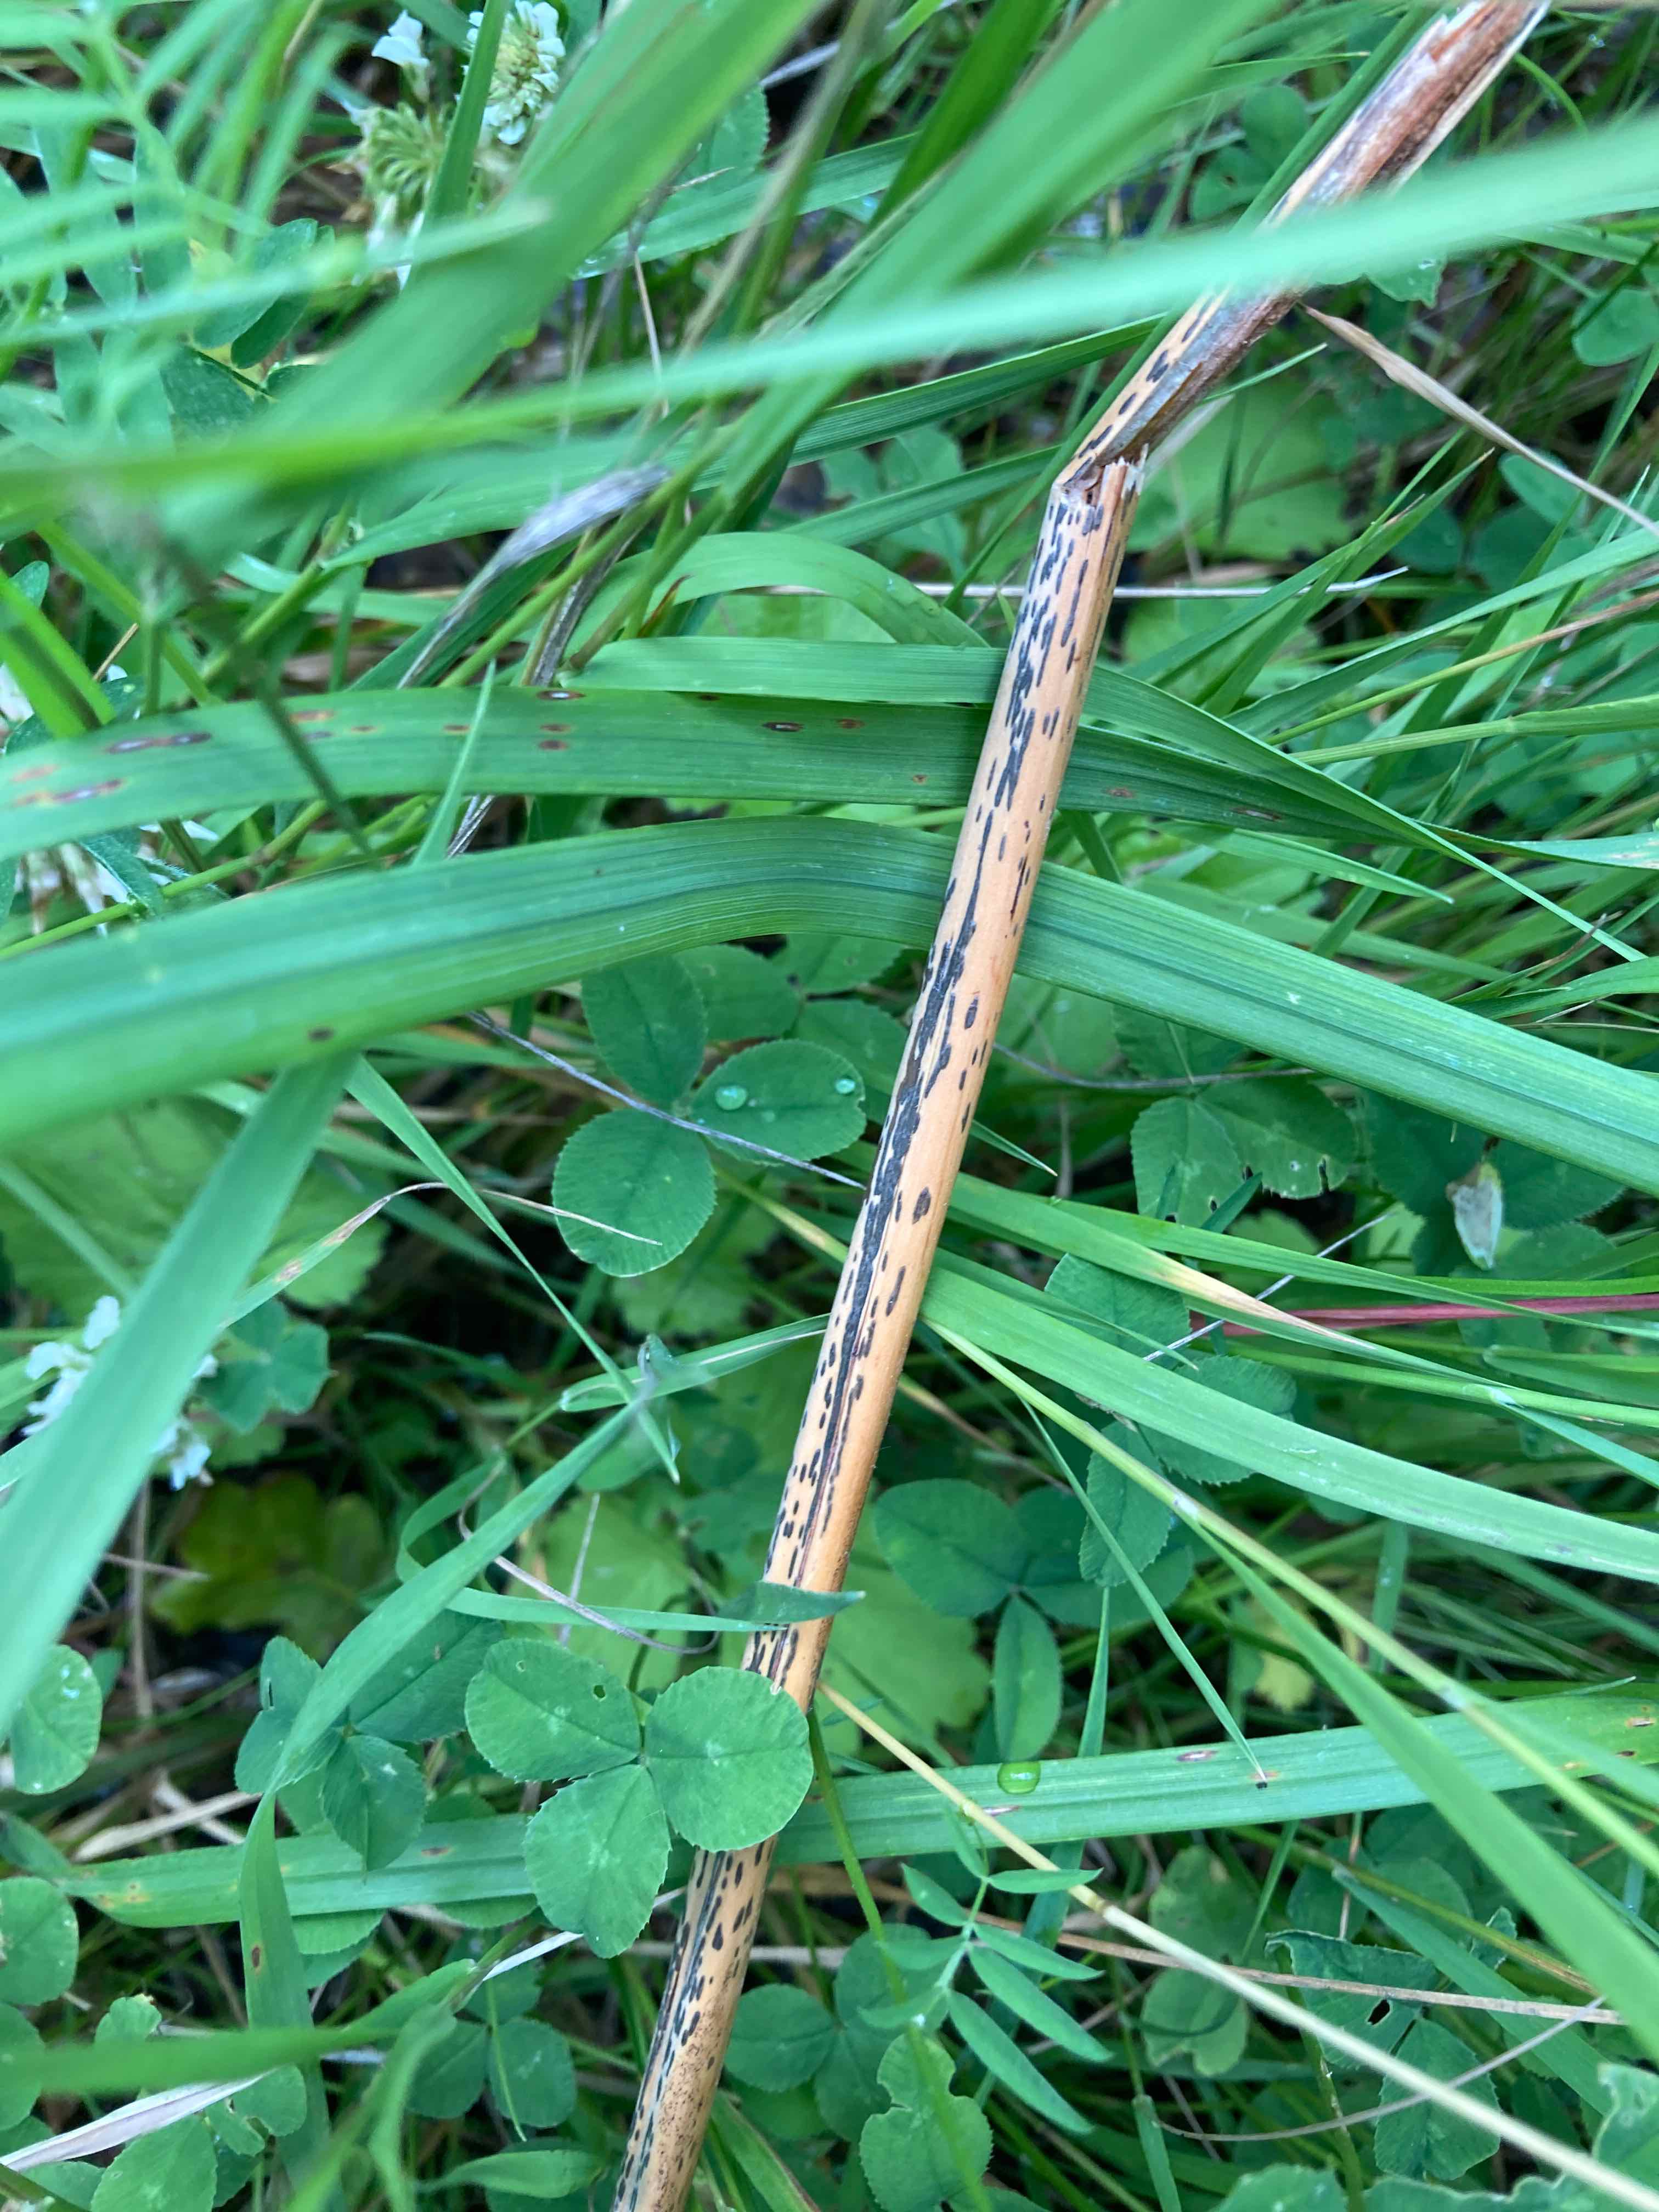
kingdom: Fungi
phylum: Ascomycota
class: Dothideomycetes
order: Pleosporales
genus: Rhopographus
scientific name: Rhopographus filicinus
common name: Bracken map
